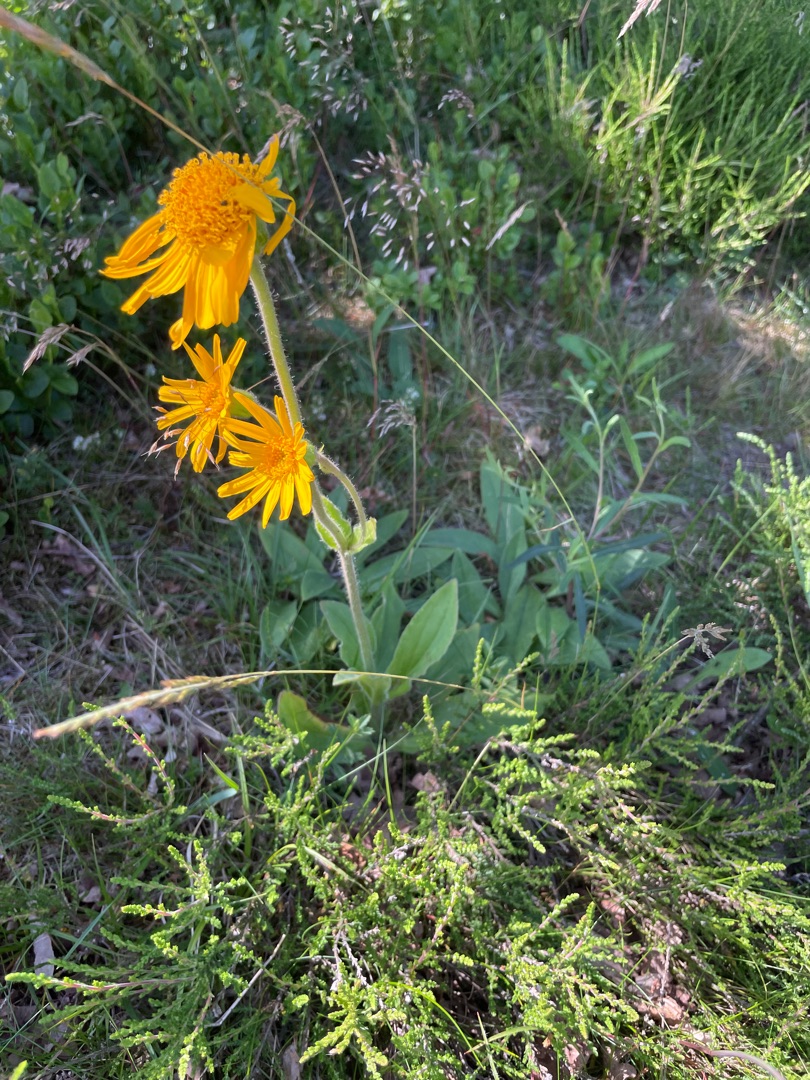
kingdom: Plantae
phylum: Tracheophyta
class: Magnoliopsida
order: Asterales
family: Asteraceae
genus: Arnica
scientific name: Arnica montana
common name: Guldblomme
